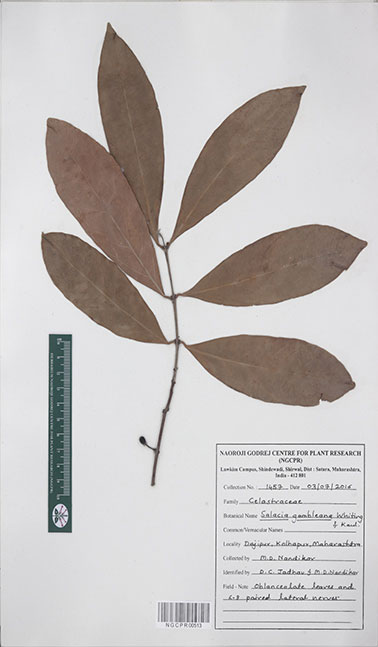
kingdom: Plantae
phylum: Tracheophyta
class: Magnoliopsida
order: Celastrales
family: Celastraceae
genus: Salacia
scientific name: Salacia gambleana
